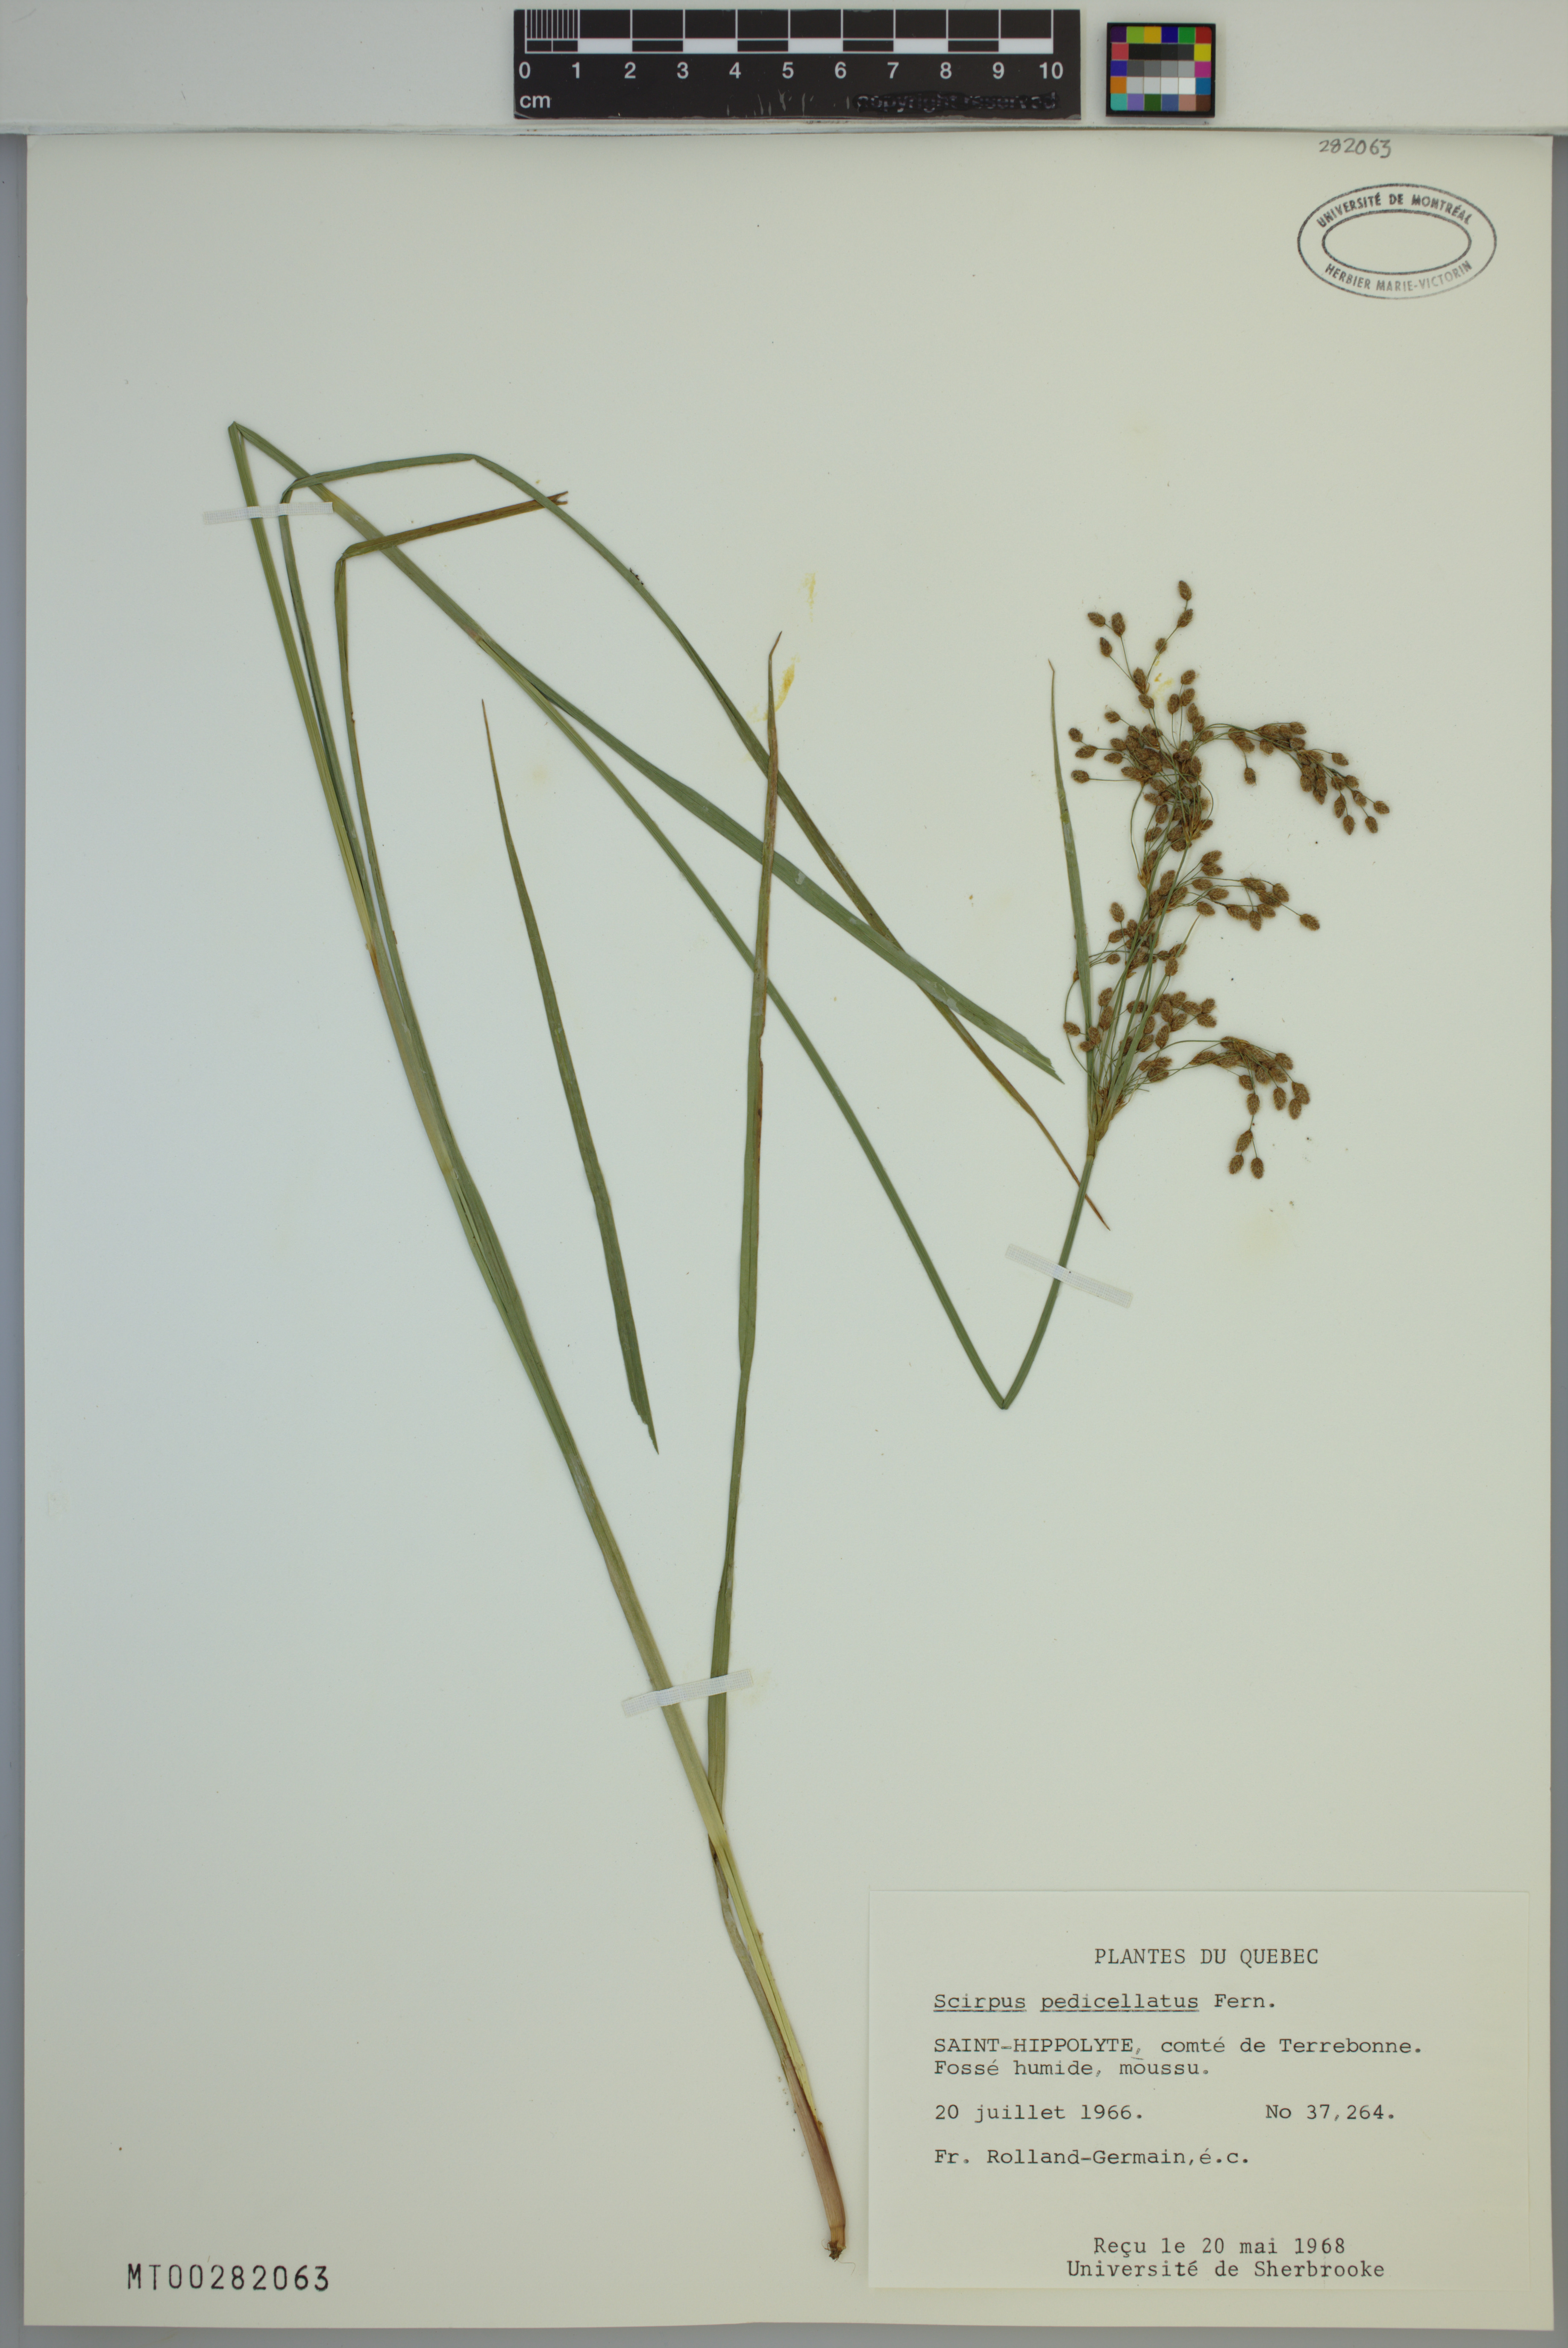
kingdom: Plantae
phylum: Tracheophyta
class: Liliopsida
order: Poales
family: Cyperaceae
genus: Scirpus
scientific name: Scirpus pedicellatus
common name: Pedicelled bulrush
